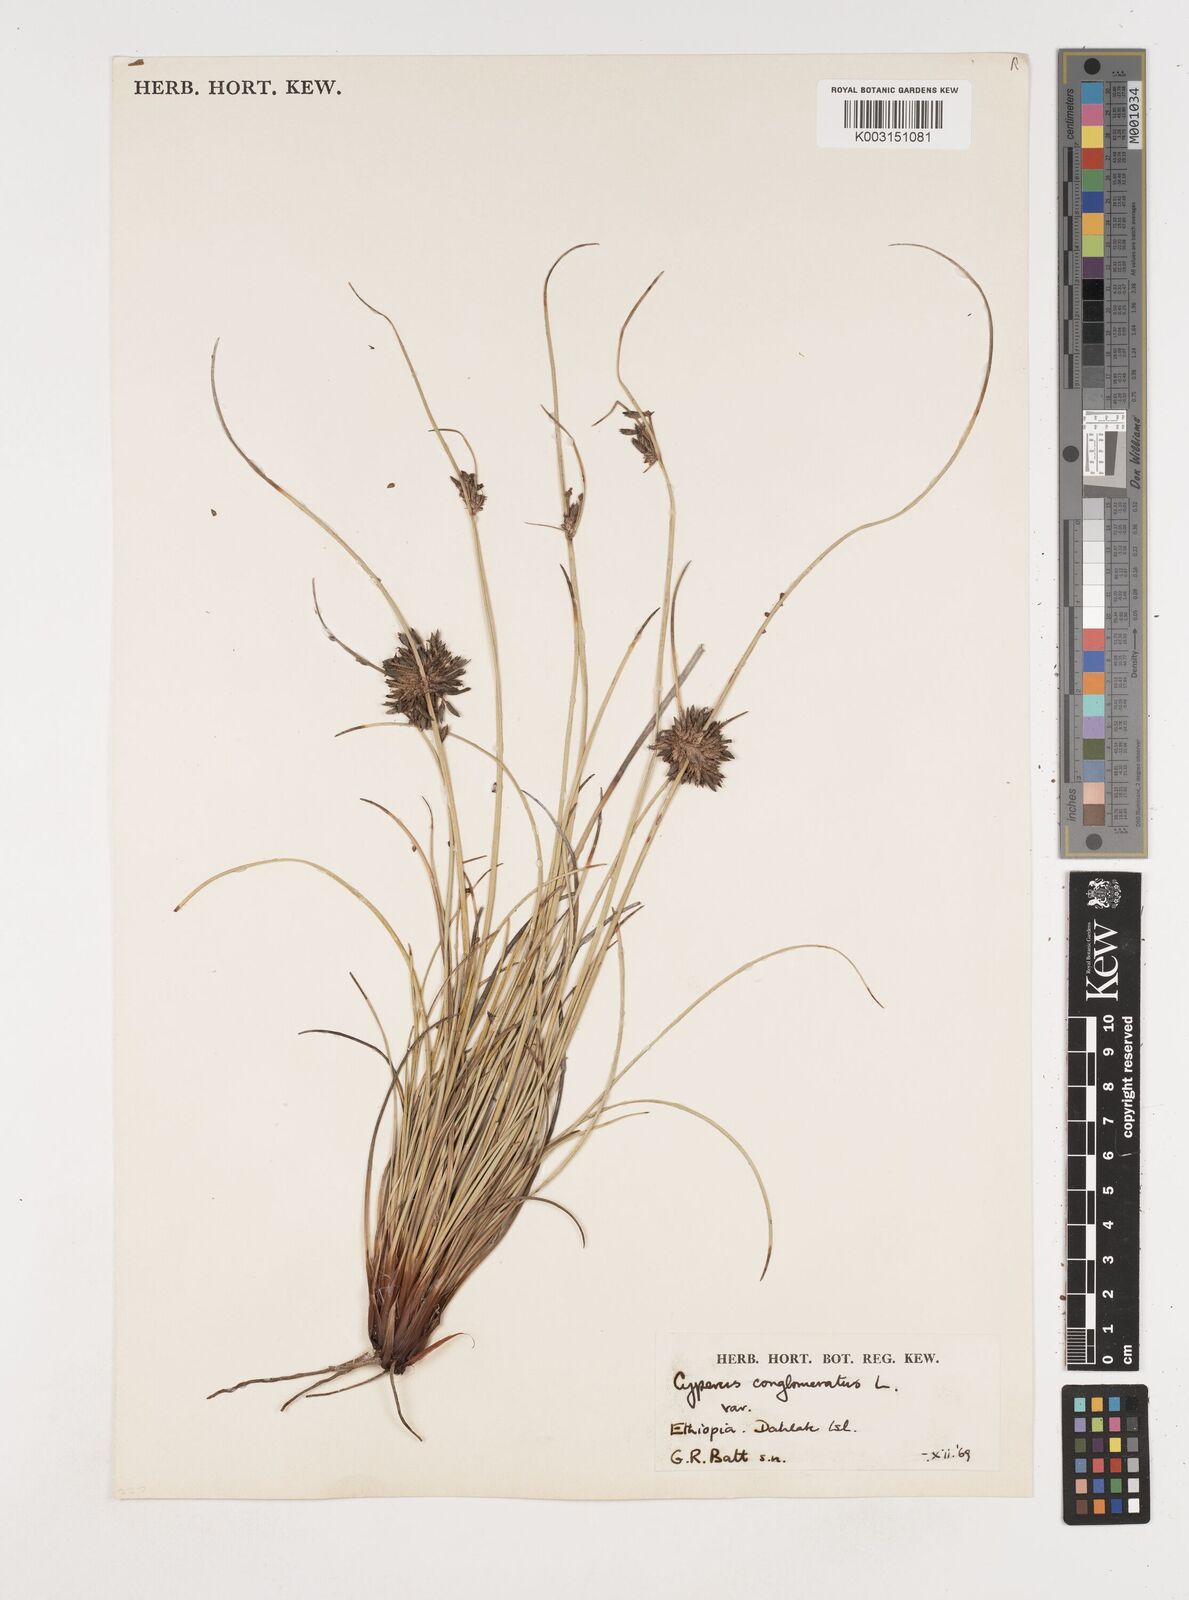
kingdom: Plantae
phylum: Tracheophyta
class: Liliopsida
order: Poales
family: Cyperaceae
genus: Cyperus
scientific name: Cyperus jeminicus
